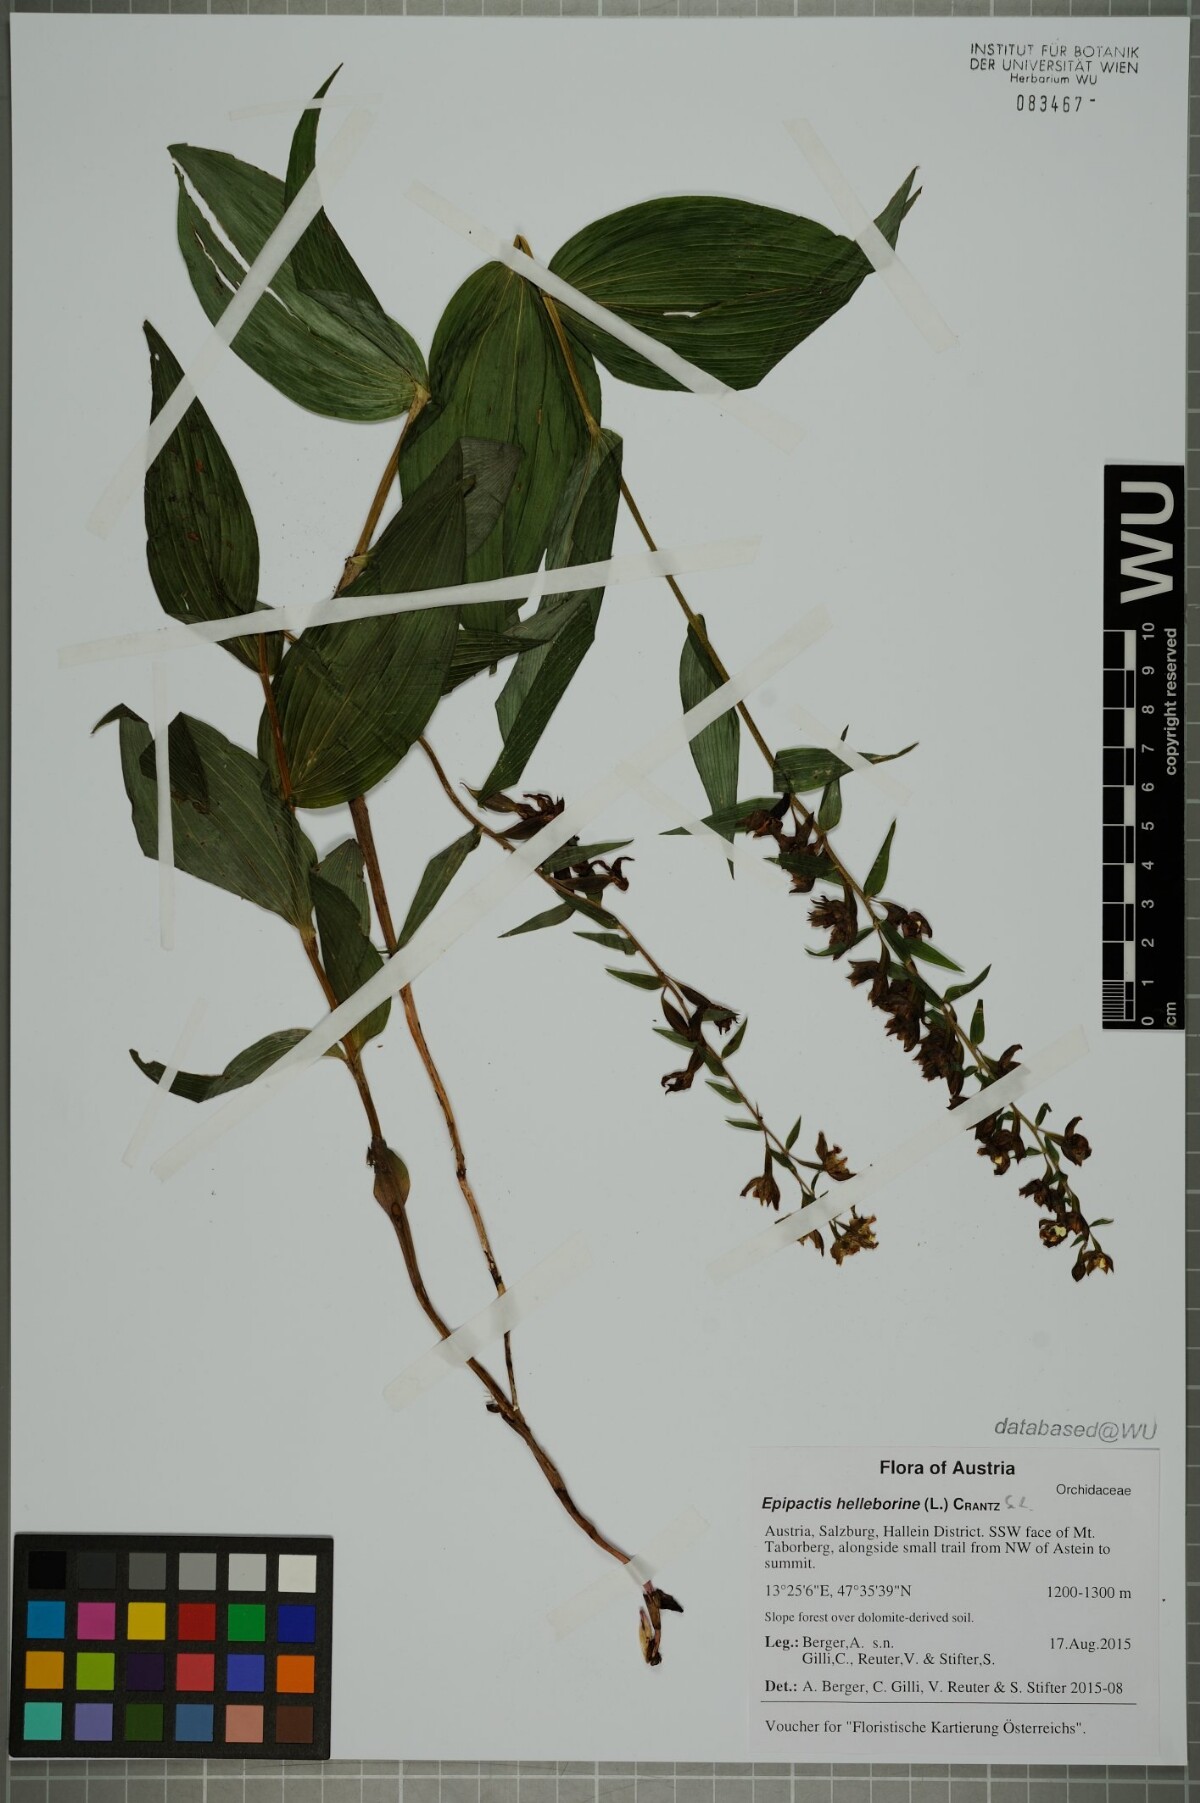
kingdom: Plantae
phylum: Tracheophyta
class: Liliopsida
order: Asparagales
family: Orchidaceae
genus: Epipactis
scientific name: Epipactis helleborine
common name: Broad-leaved helleborine
